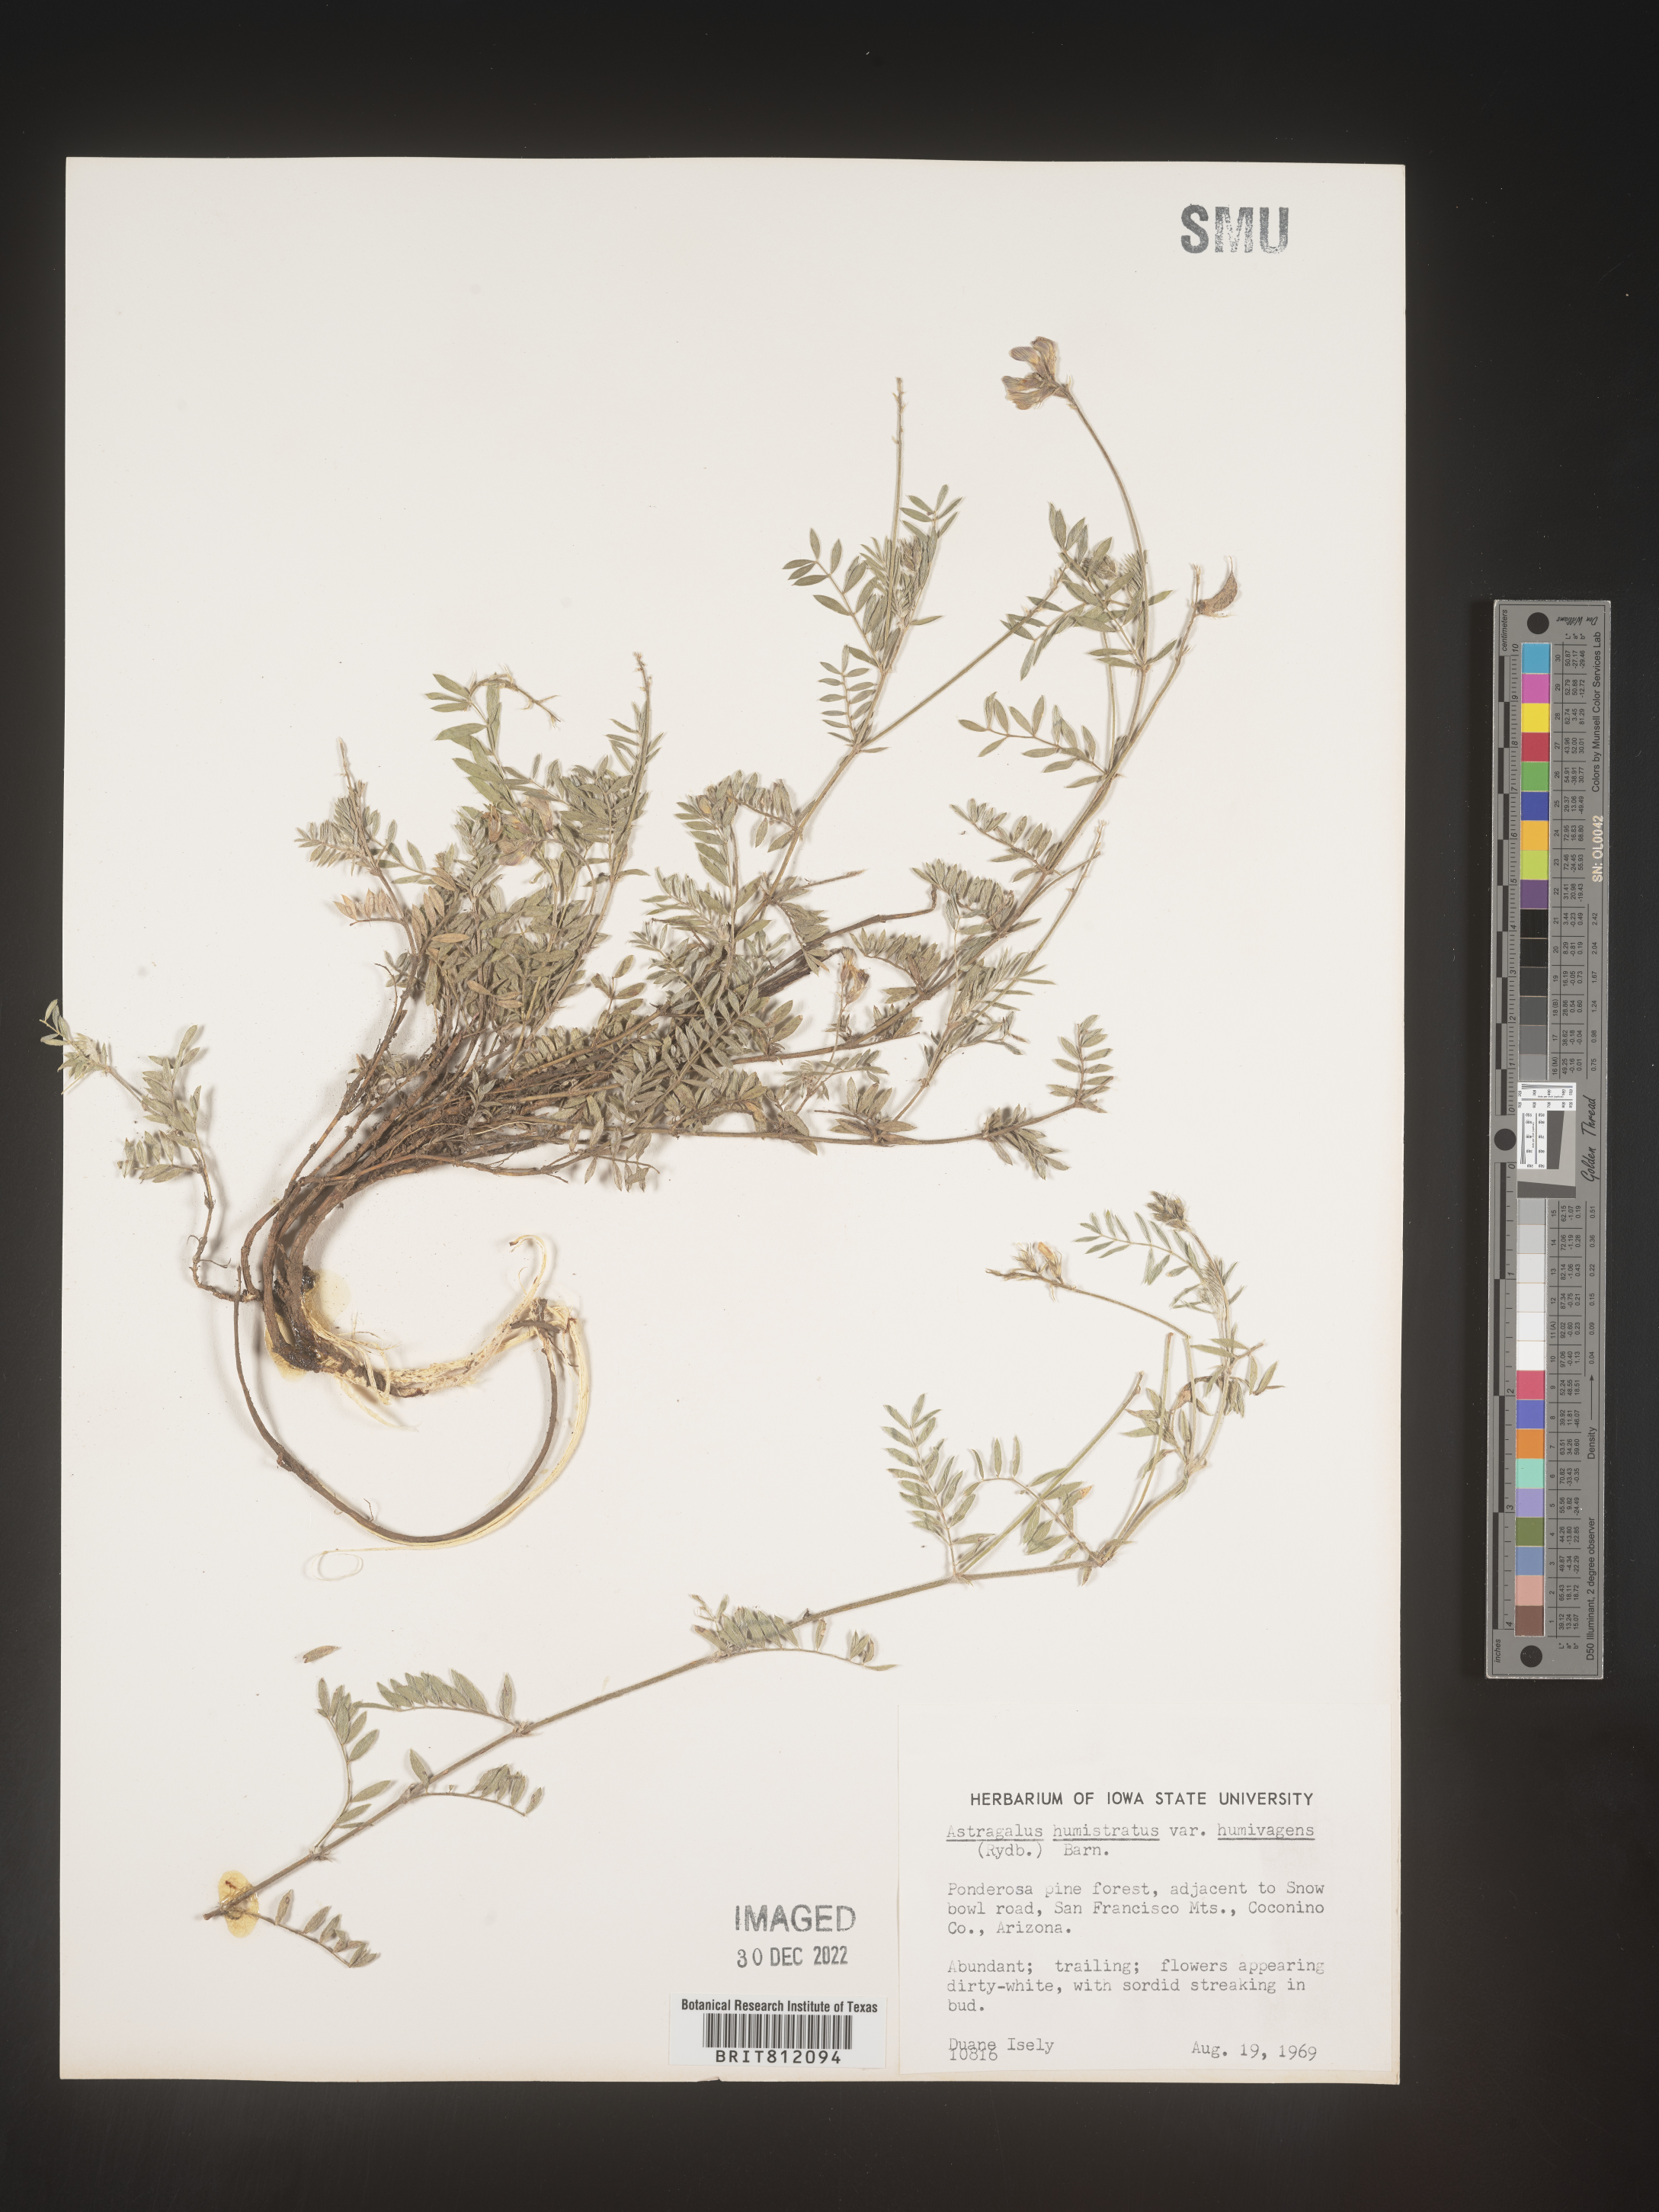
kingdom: Plantae
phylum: Tracheophyta
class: Magnoliopsida
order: Fabales
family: Fabaceae
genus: Astragalus
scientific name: Astragalus
